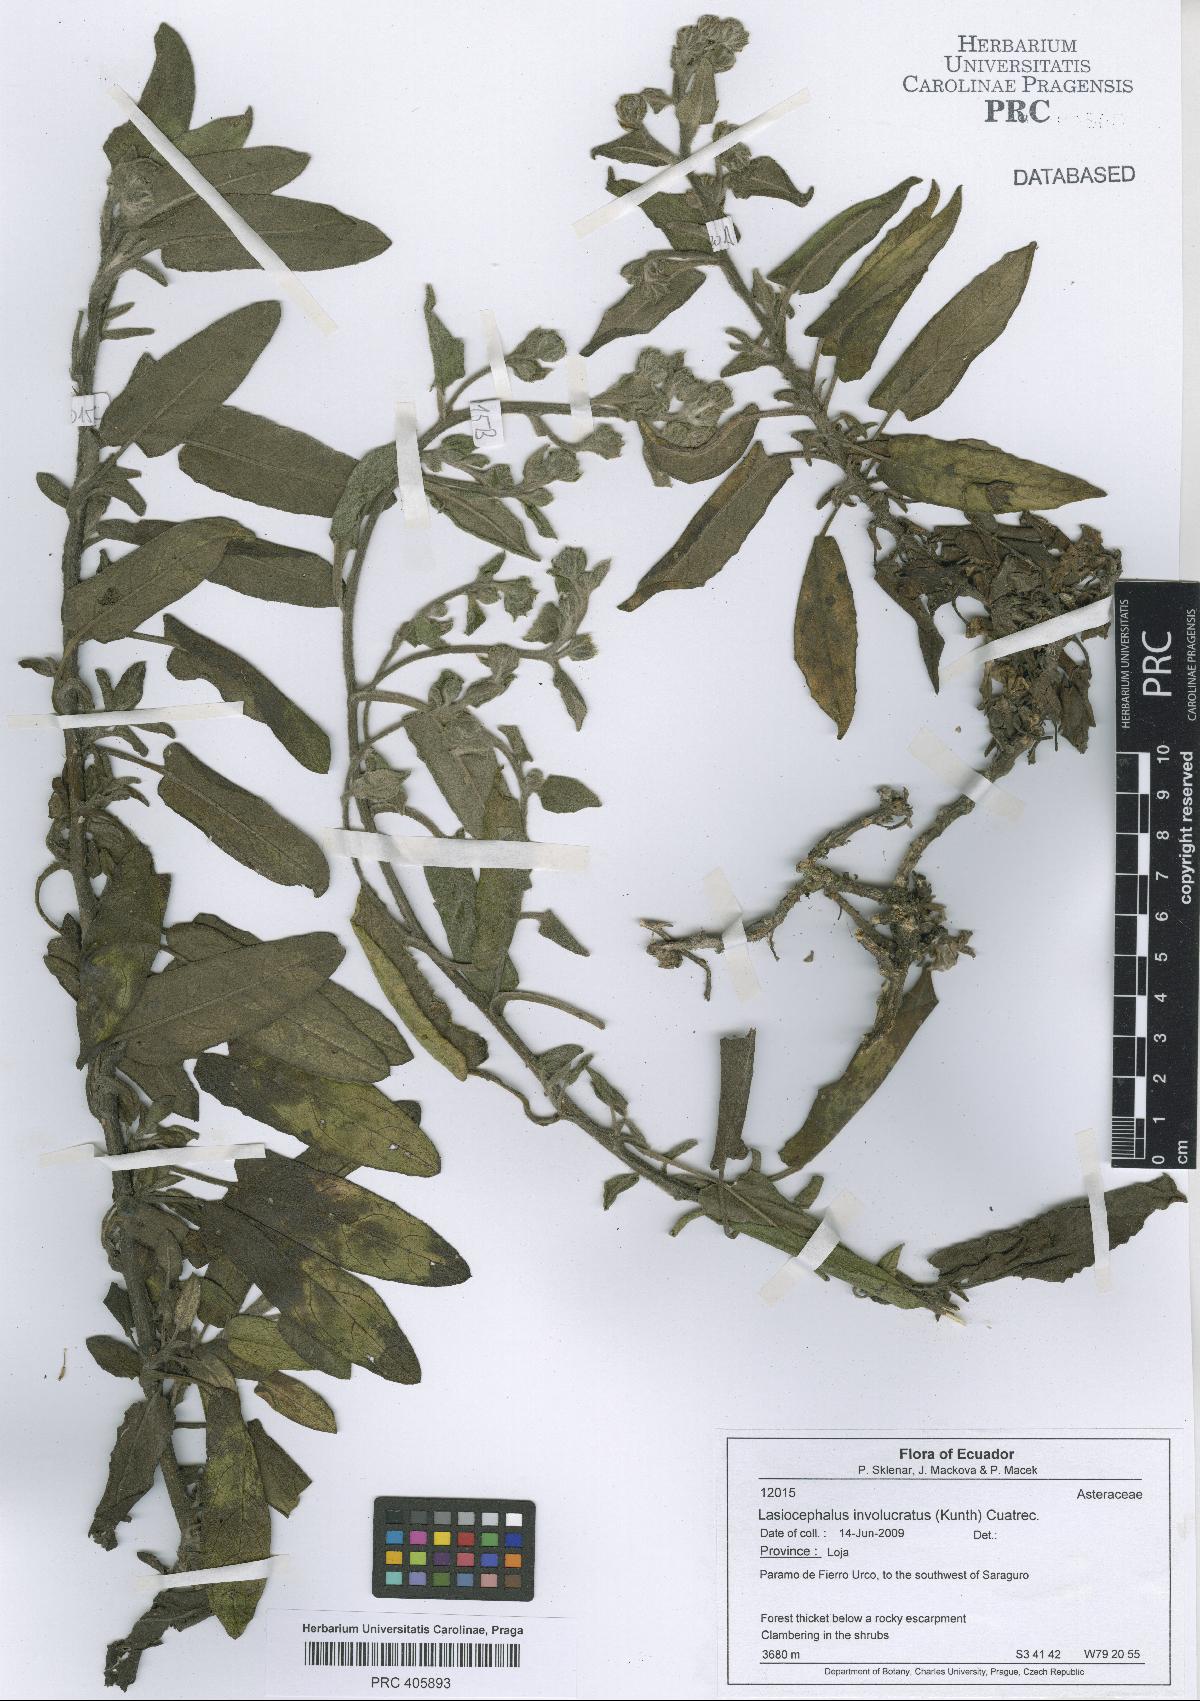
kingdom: Plantae
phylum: Tracheophyta
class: Magnoliopsida
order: Asterales
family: Asteraceae
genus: Aetheolaena
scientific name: Aetheolaena involucrata
